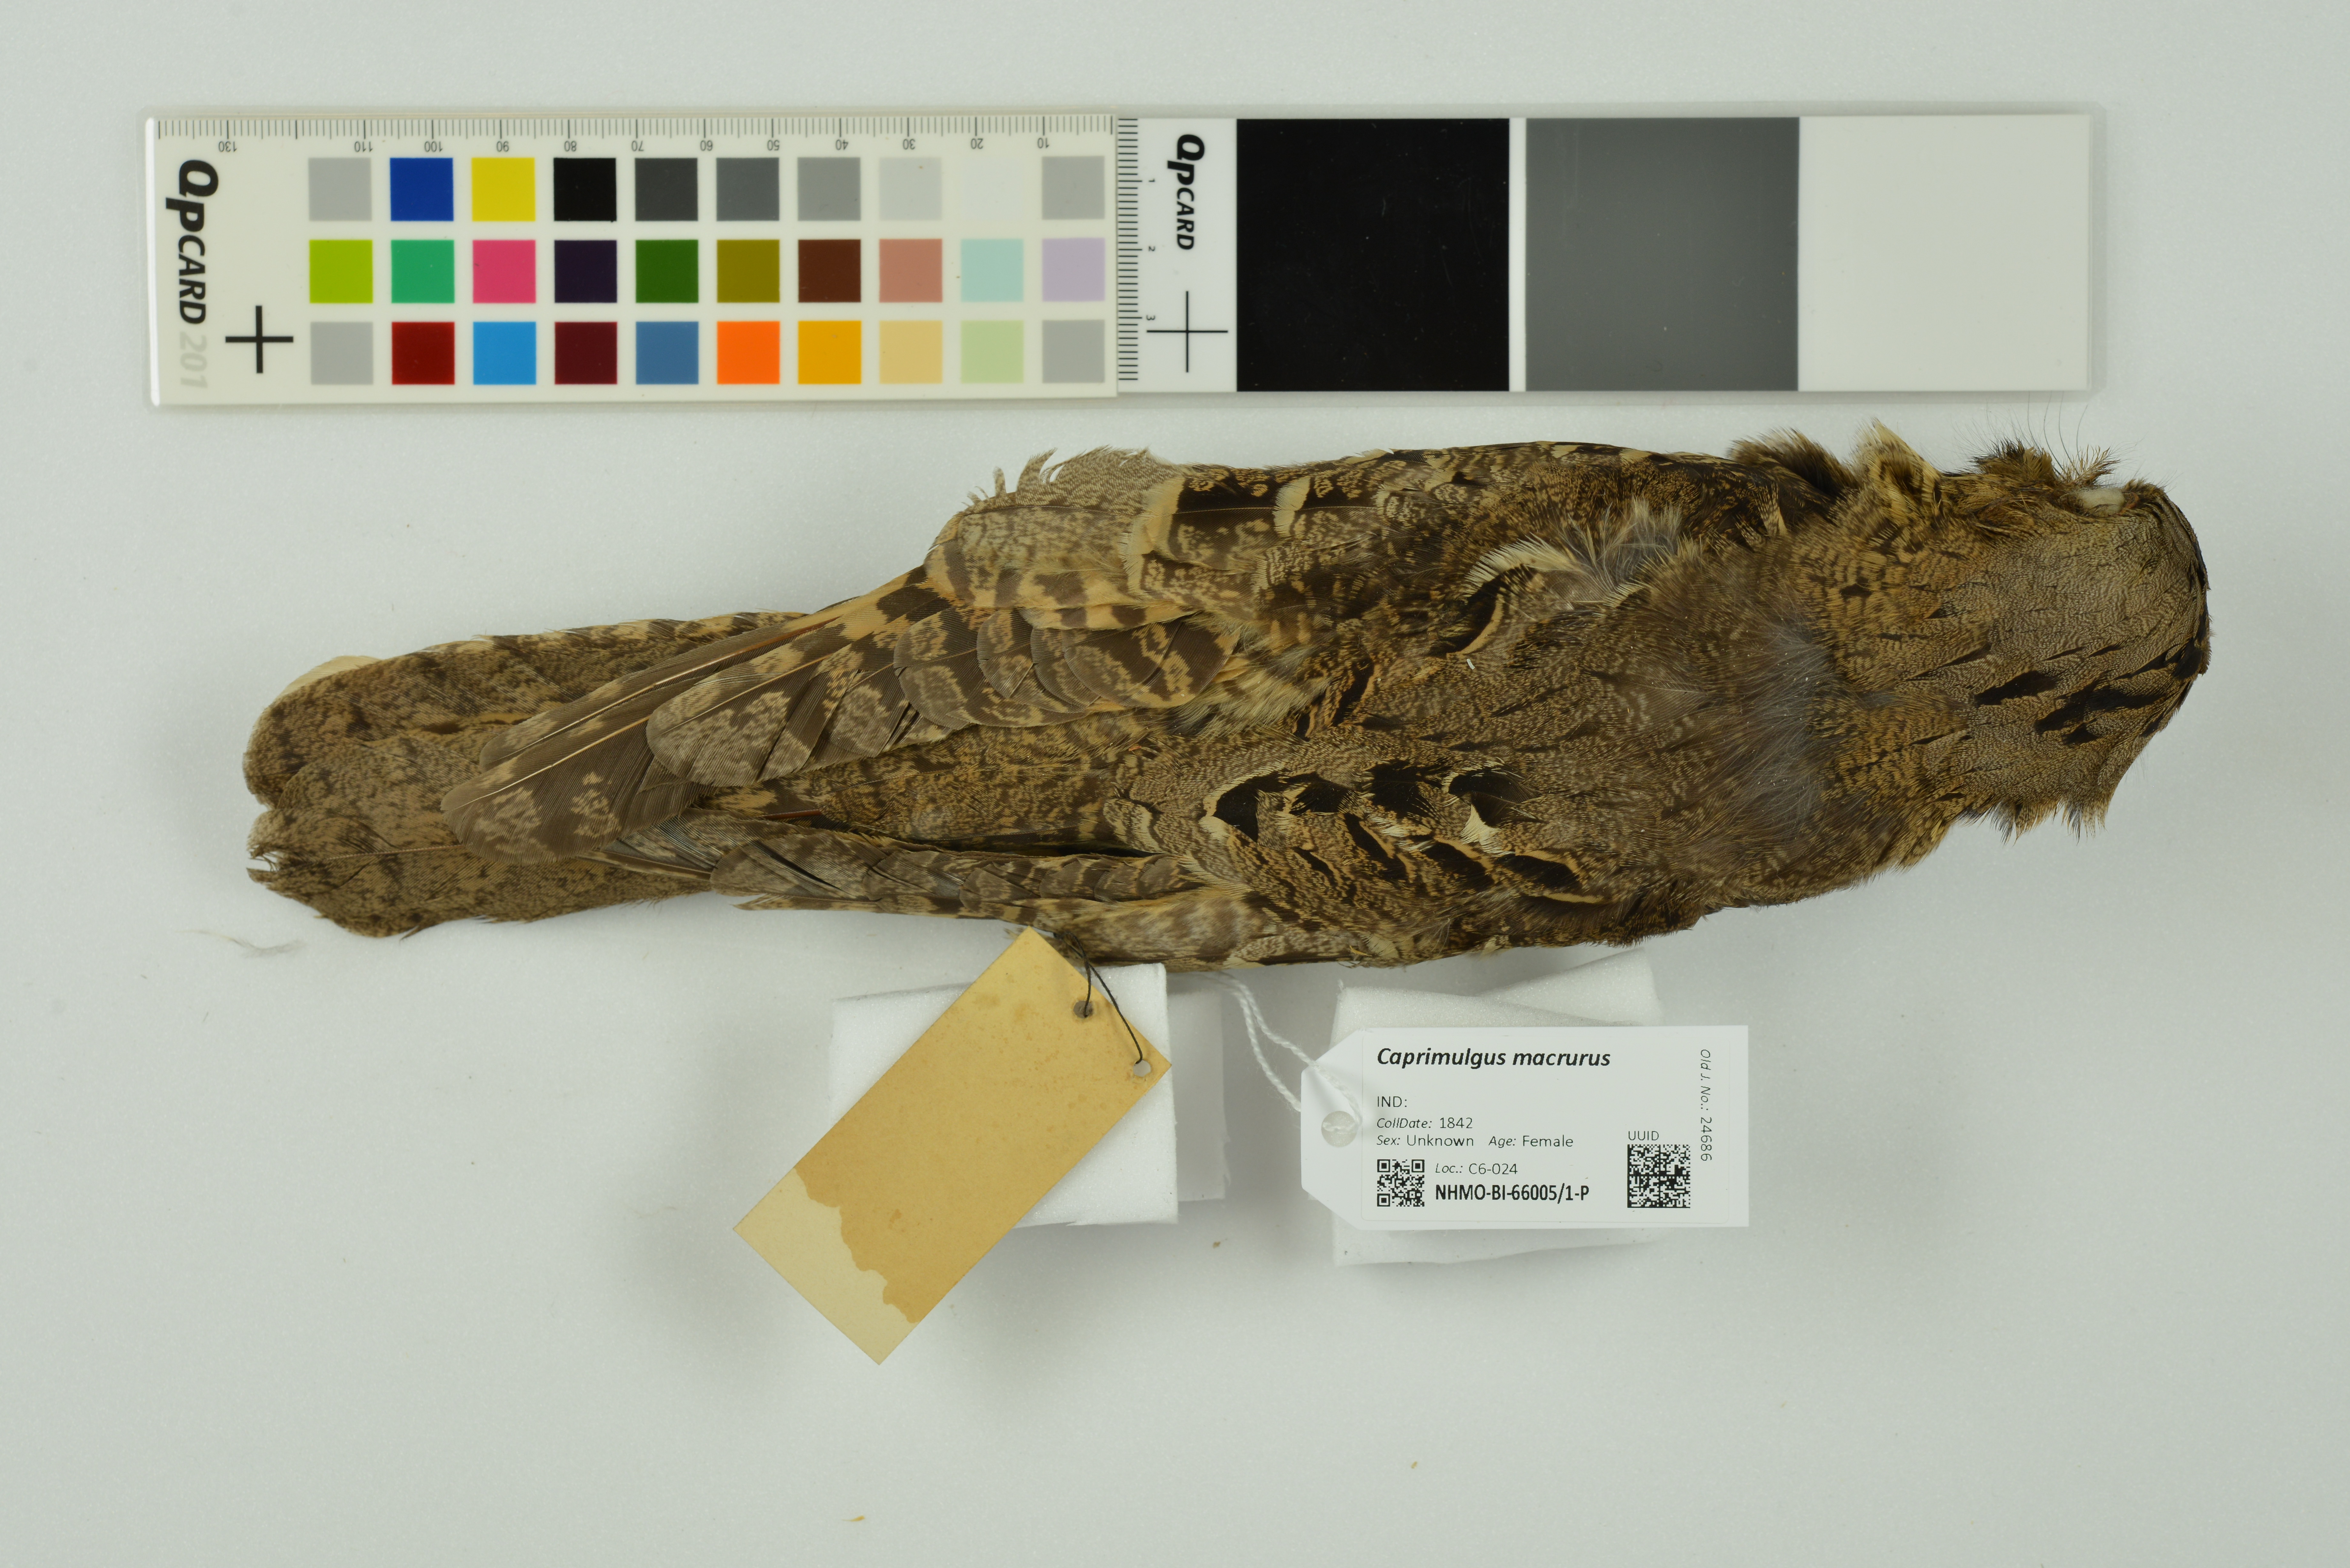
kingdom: Animalia
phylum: Chordata
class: Aves
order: Caprimulgiformes
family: Caprimulgidae
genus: Caprimulgus
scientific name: Caprimulgus macrurus
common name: Large-tailed nightjar
